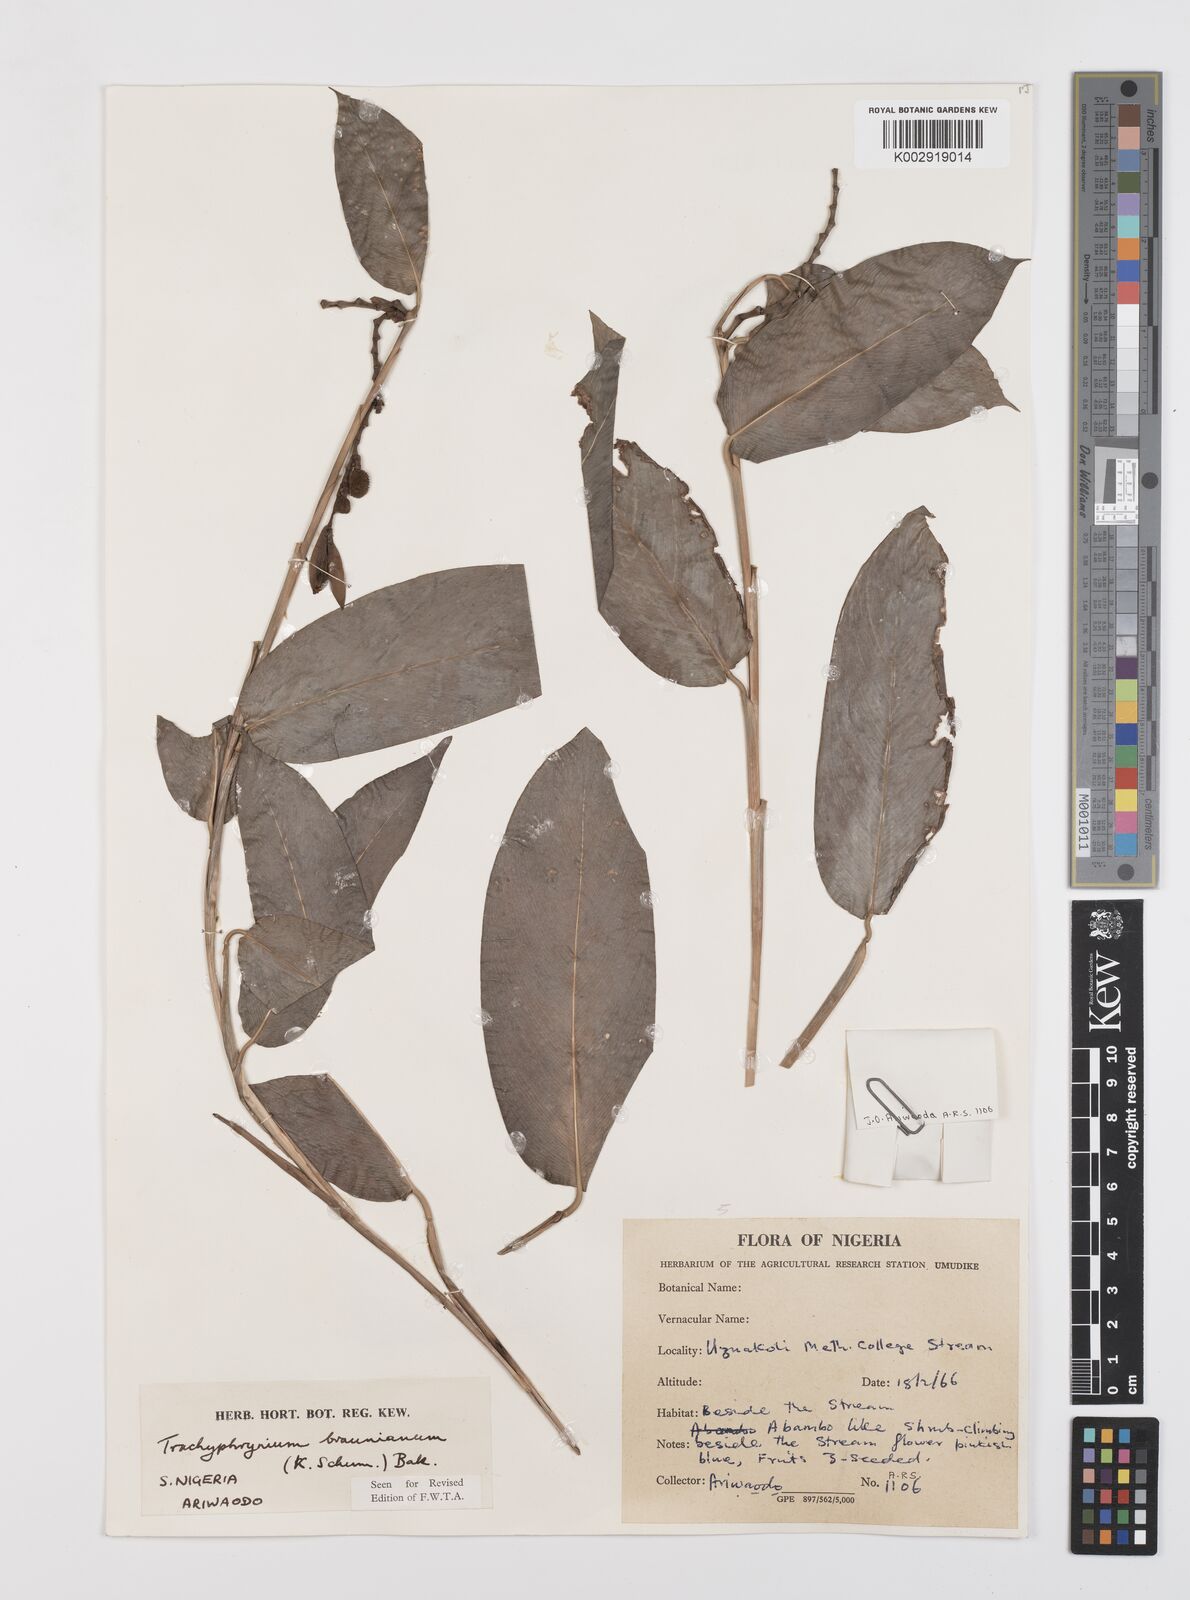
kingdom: Plantae
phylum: Tracheophyta
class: Liliopsida
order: Zingiberales
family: Marantaceae
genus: Trachyphrynium
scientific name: Trachyphrynium braunianum
